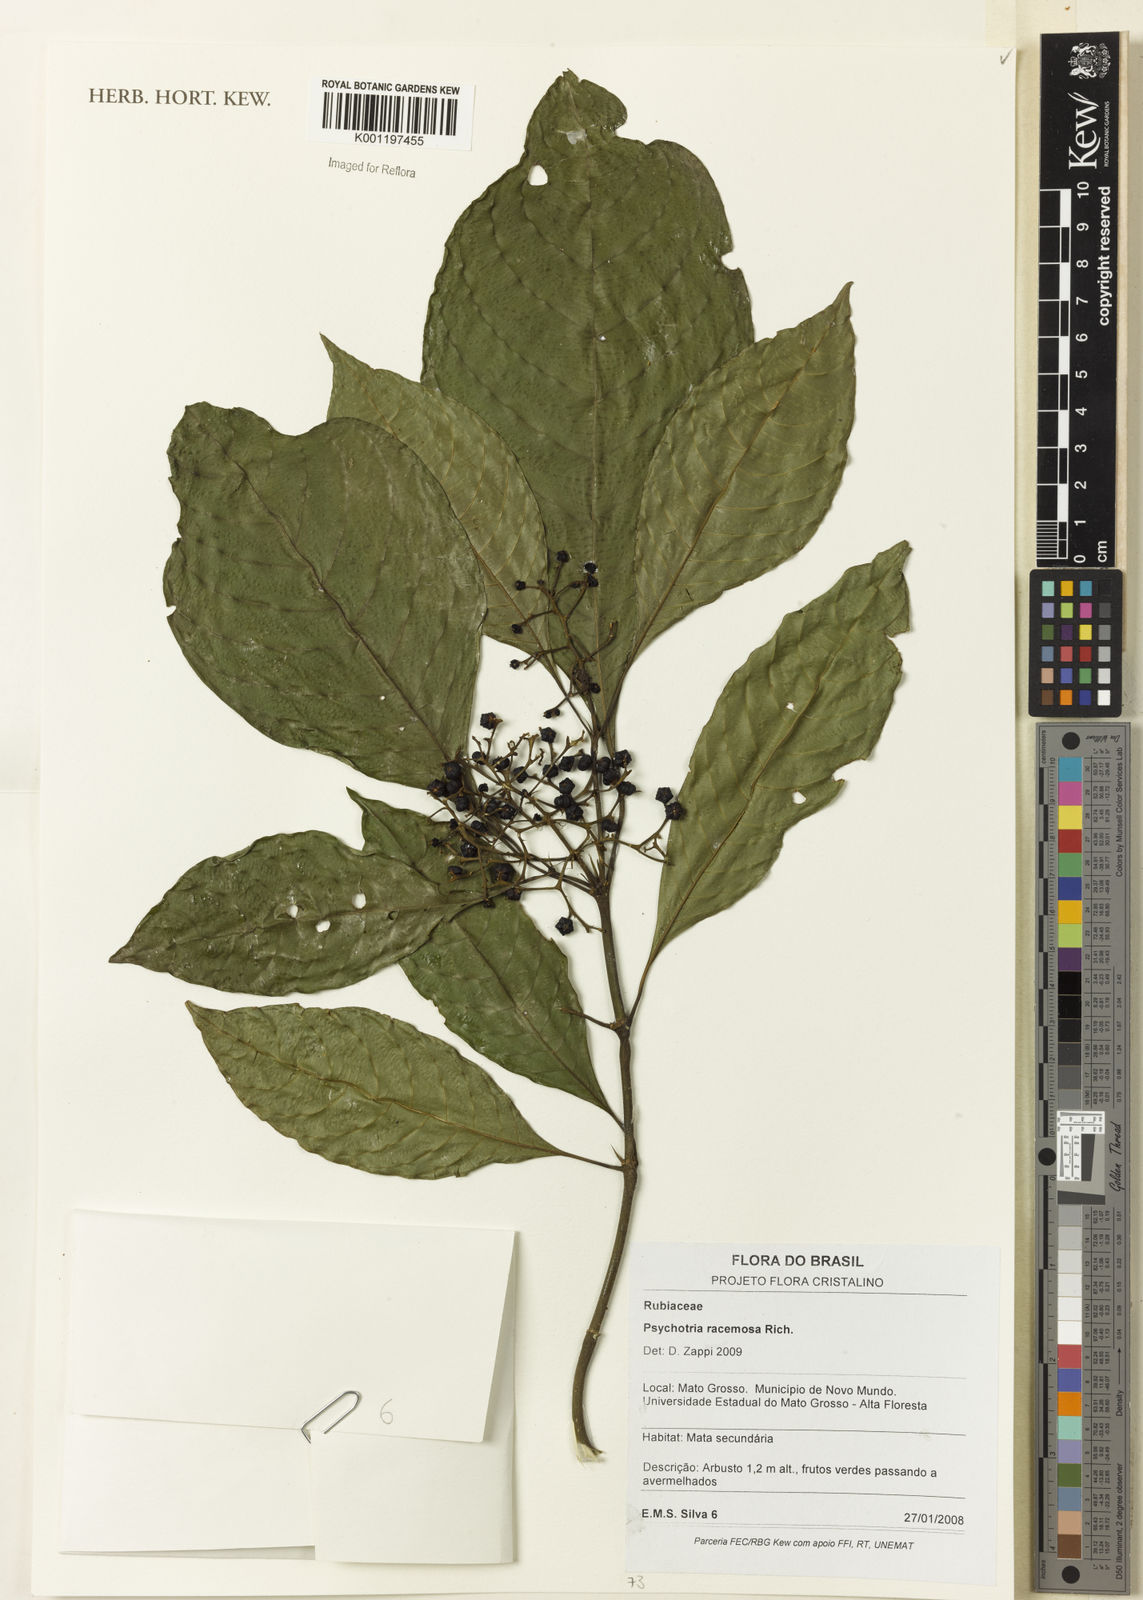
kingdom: Plantae
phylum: Tracheophyta
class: Magnoliopsida
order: Gentianales
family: Rubiaceae
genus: Psychotria
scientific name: Psychotria remota
